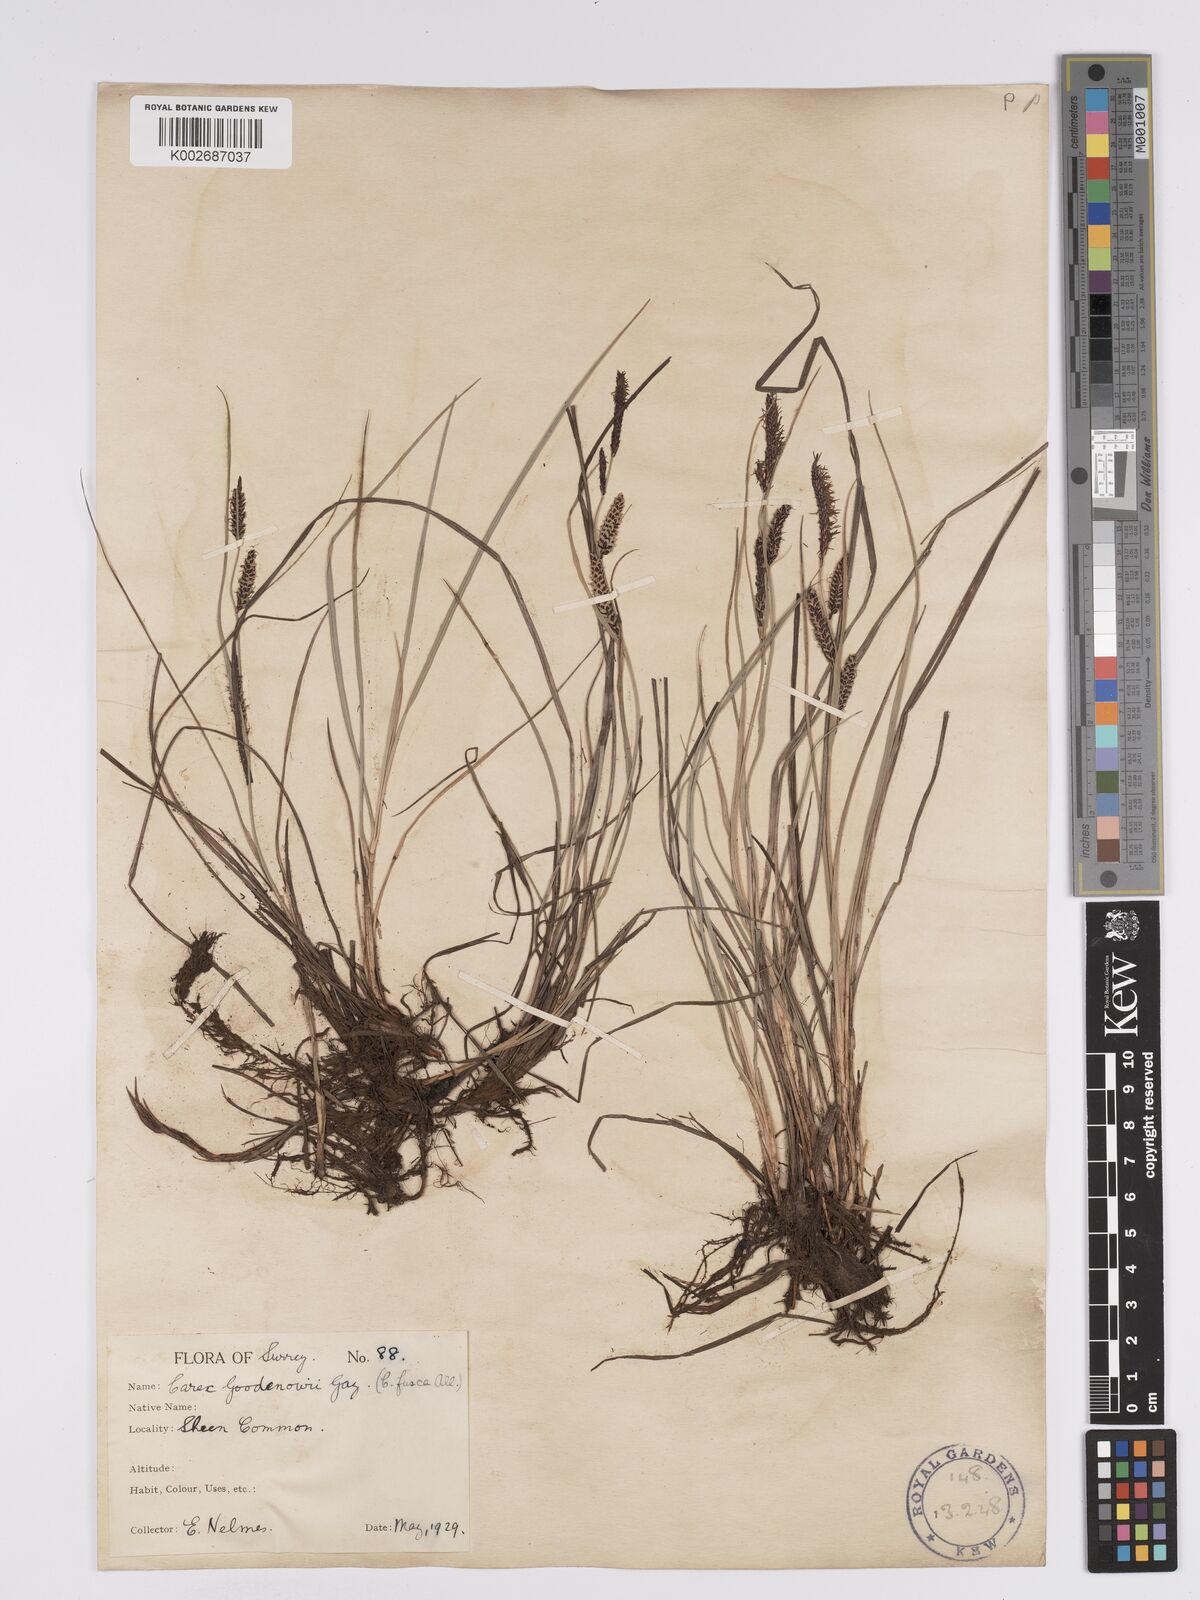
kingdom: Plantae
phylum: Tracheophyta
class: Liliopsida
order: Poales
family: Cyperaceae
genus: Carex
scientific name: Carex nigra
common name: Common sedge
